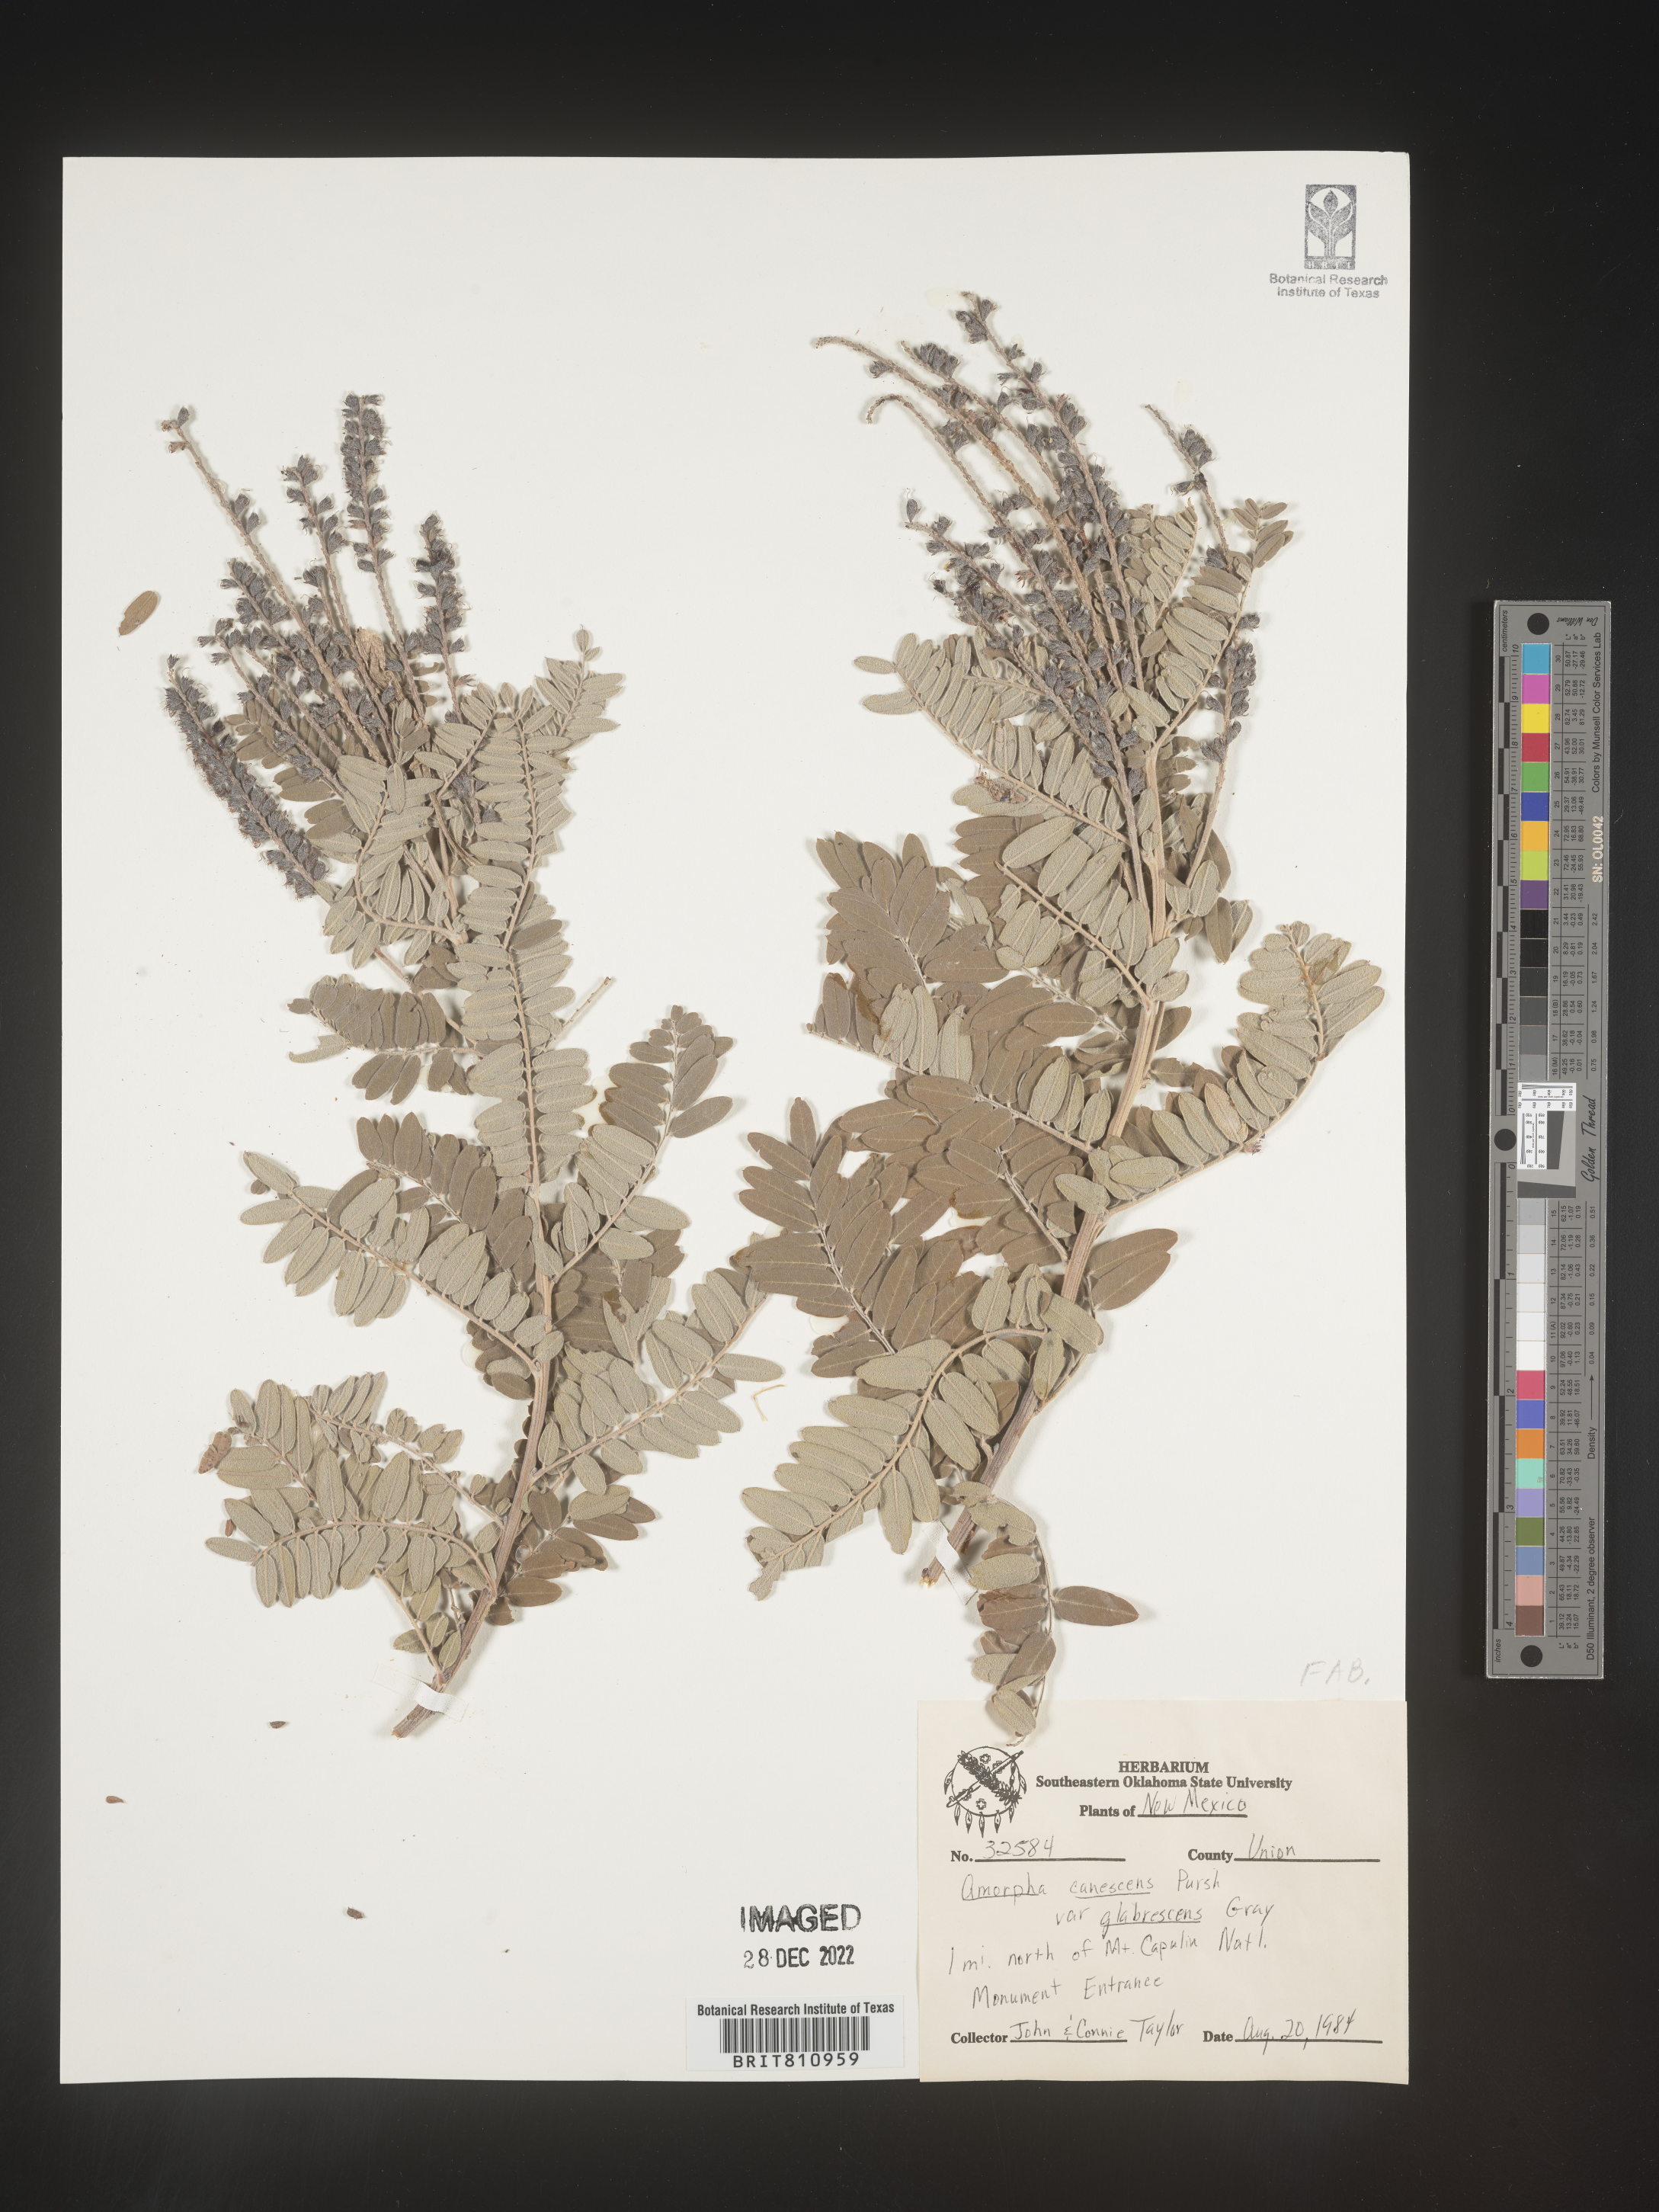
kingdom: Plantae
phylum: Tracheophyta
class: Magnoliopsida
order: Fabales
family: Fabaceae
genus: Amorpha
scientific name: Amorpha canescens
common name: Leadplant
